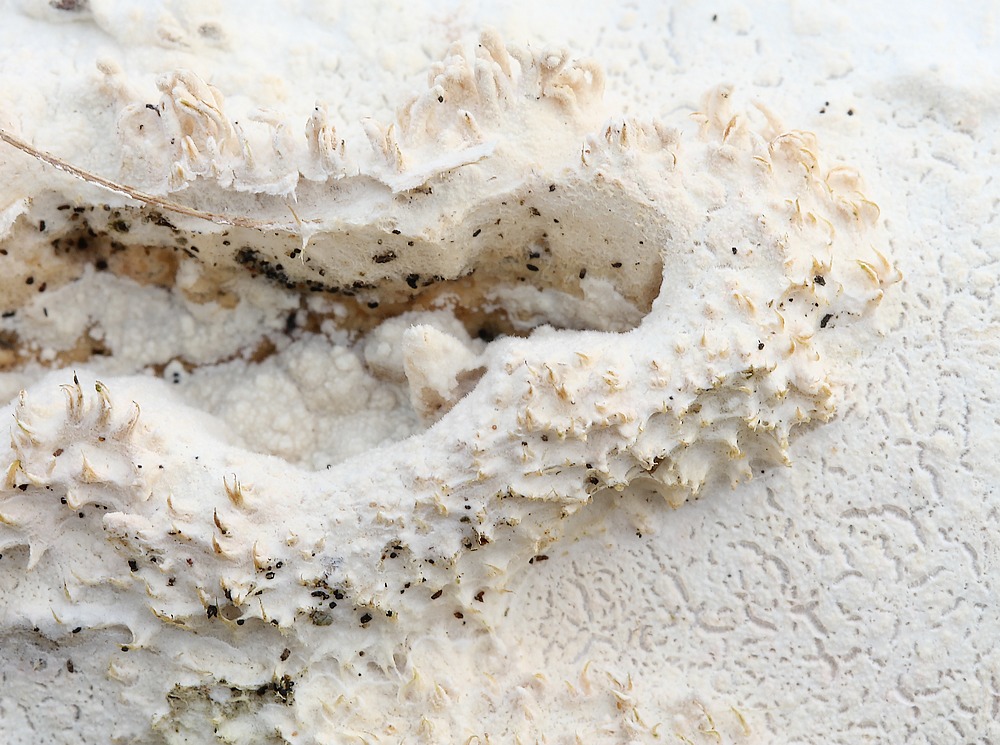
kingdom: Fungi
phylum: Basidiomycota
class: Agaricomycetes
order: Corticiales
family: Corticiaceae
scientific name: Corticiaceae
